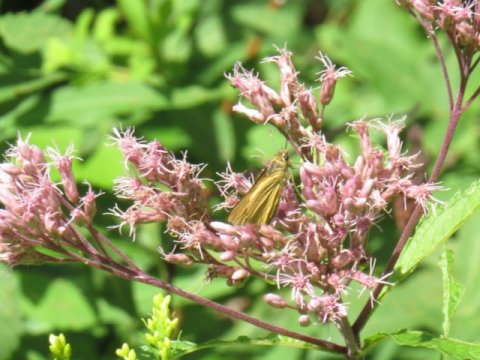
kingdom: Animalia
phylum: Arthropoda
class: Insecta
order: Lepidoptera
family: Hesperiidae
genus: Atrytone
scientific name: Atrytone delaware
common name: Delaware Skipper
